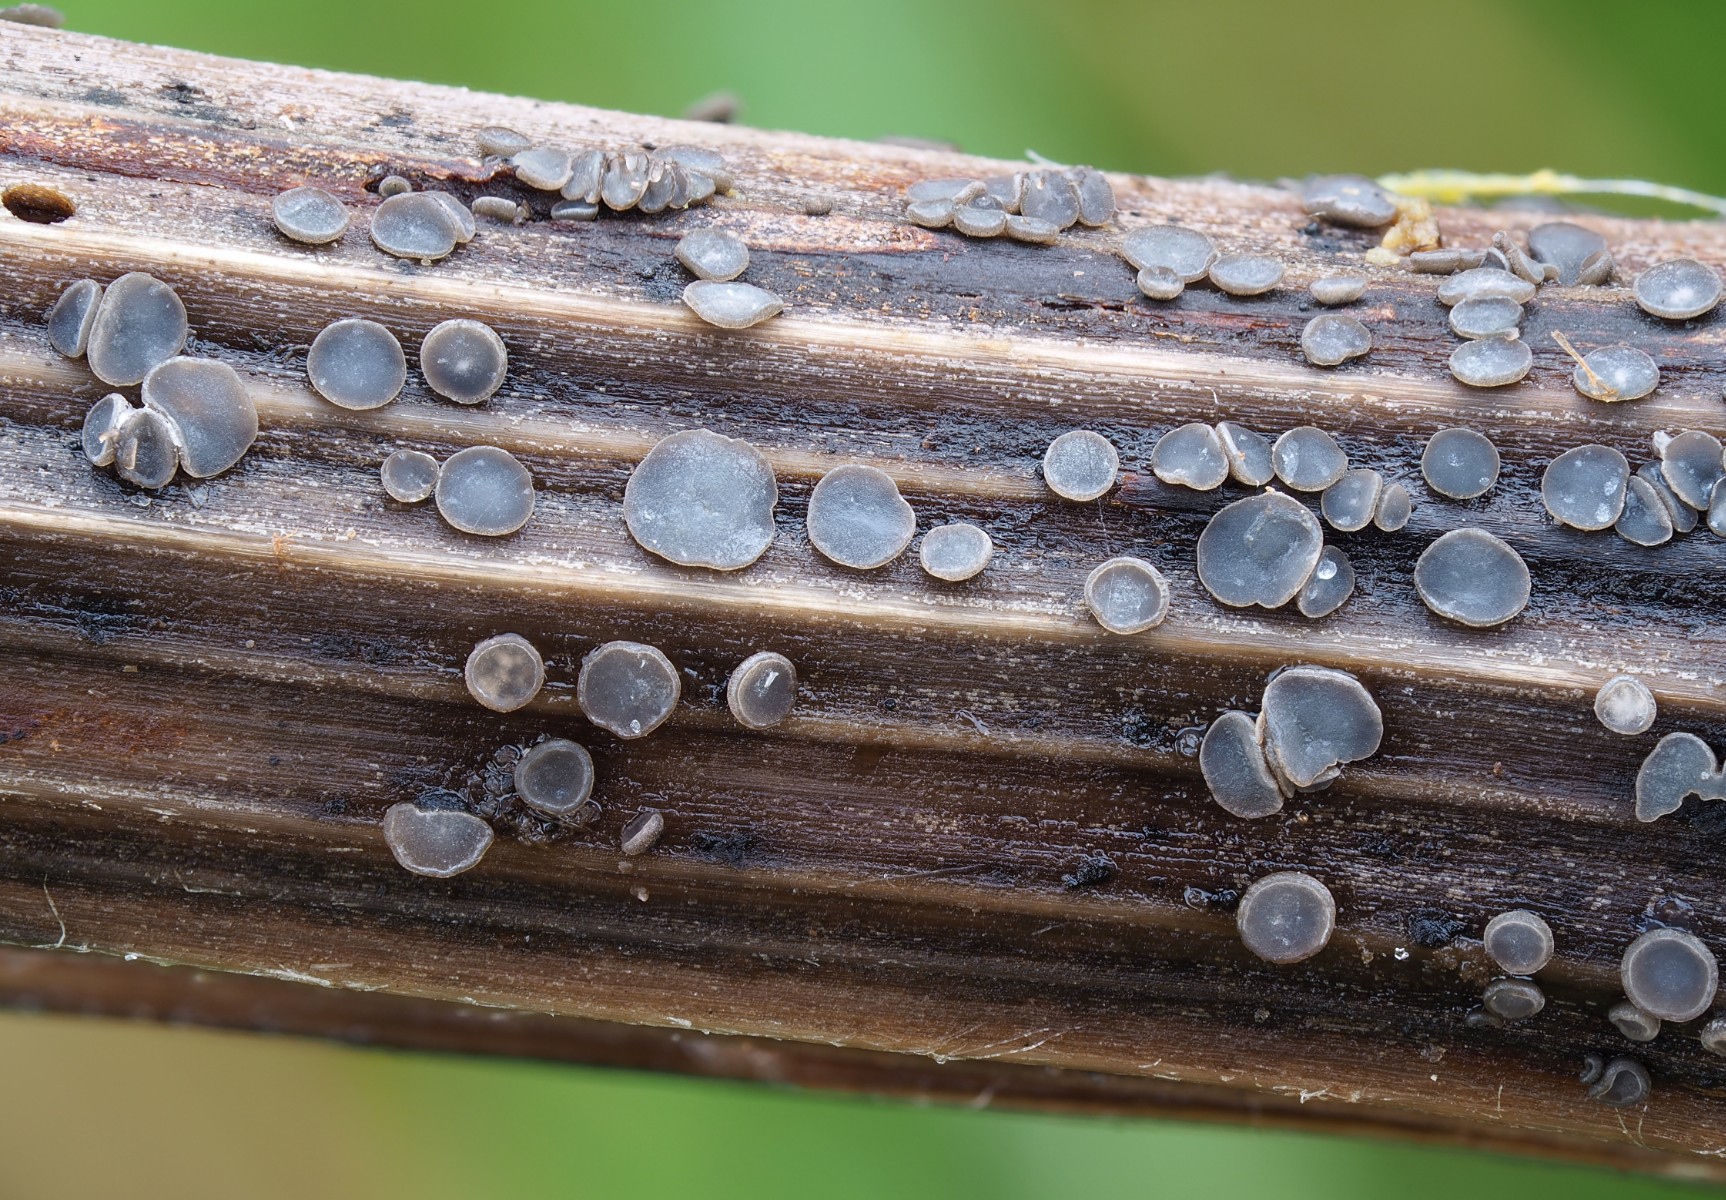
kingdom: Fungi
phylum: Ascomycota
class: Leotiomycetes
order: Helotiales
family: Ploettnerulaceae
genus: Pyrenopeziza
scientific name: Pyrenopeziza
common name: kerneskive
